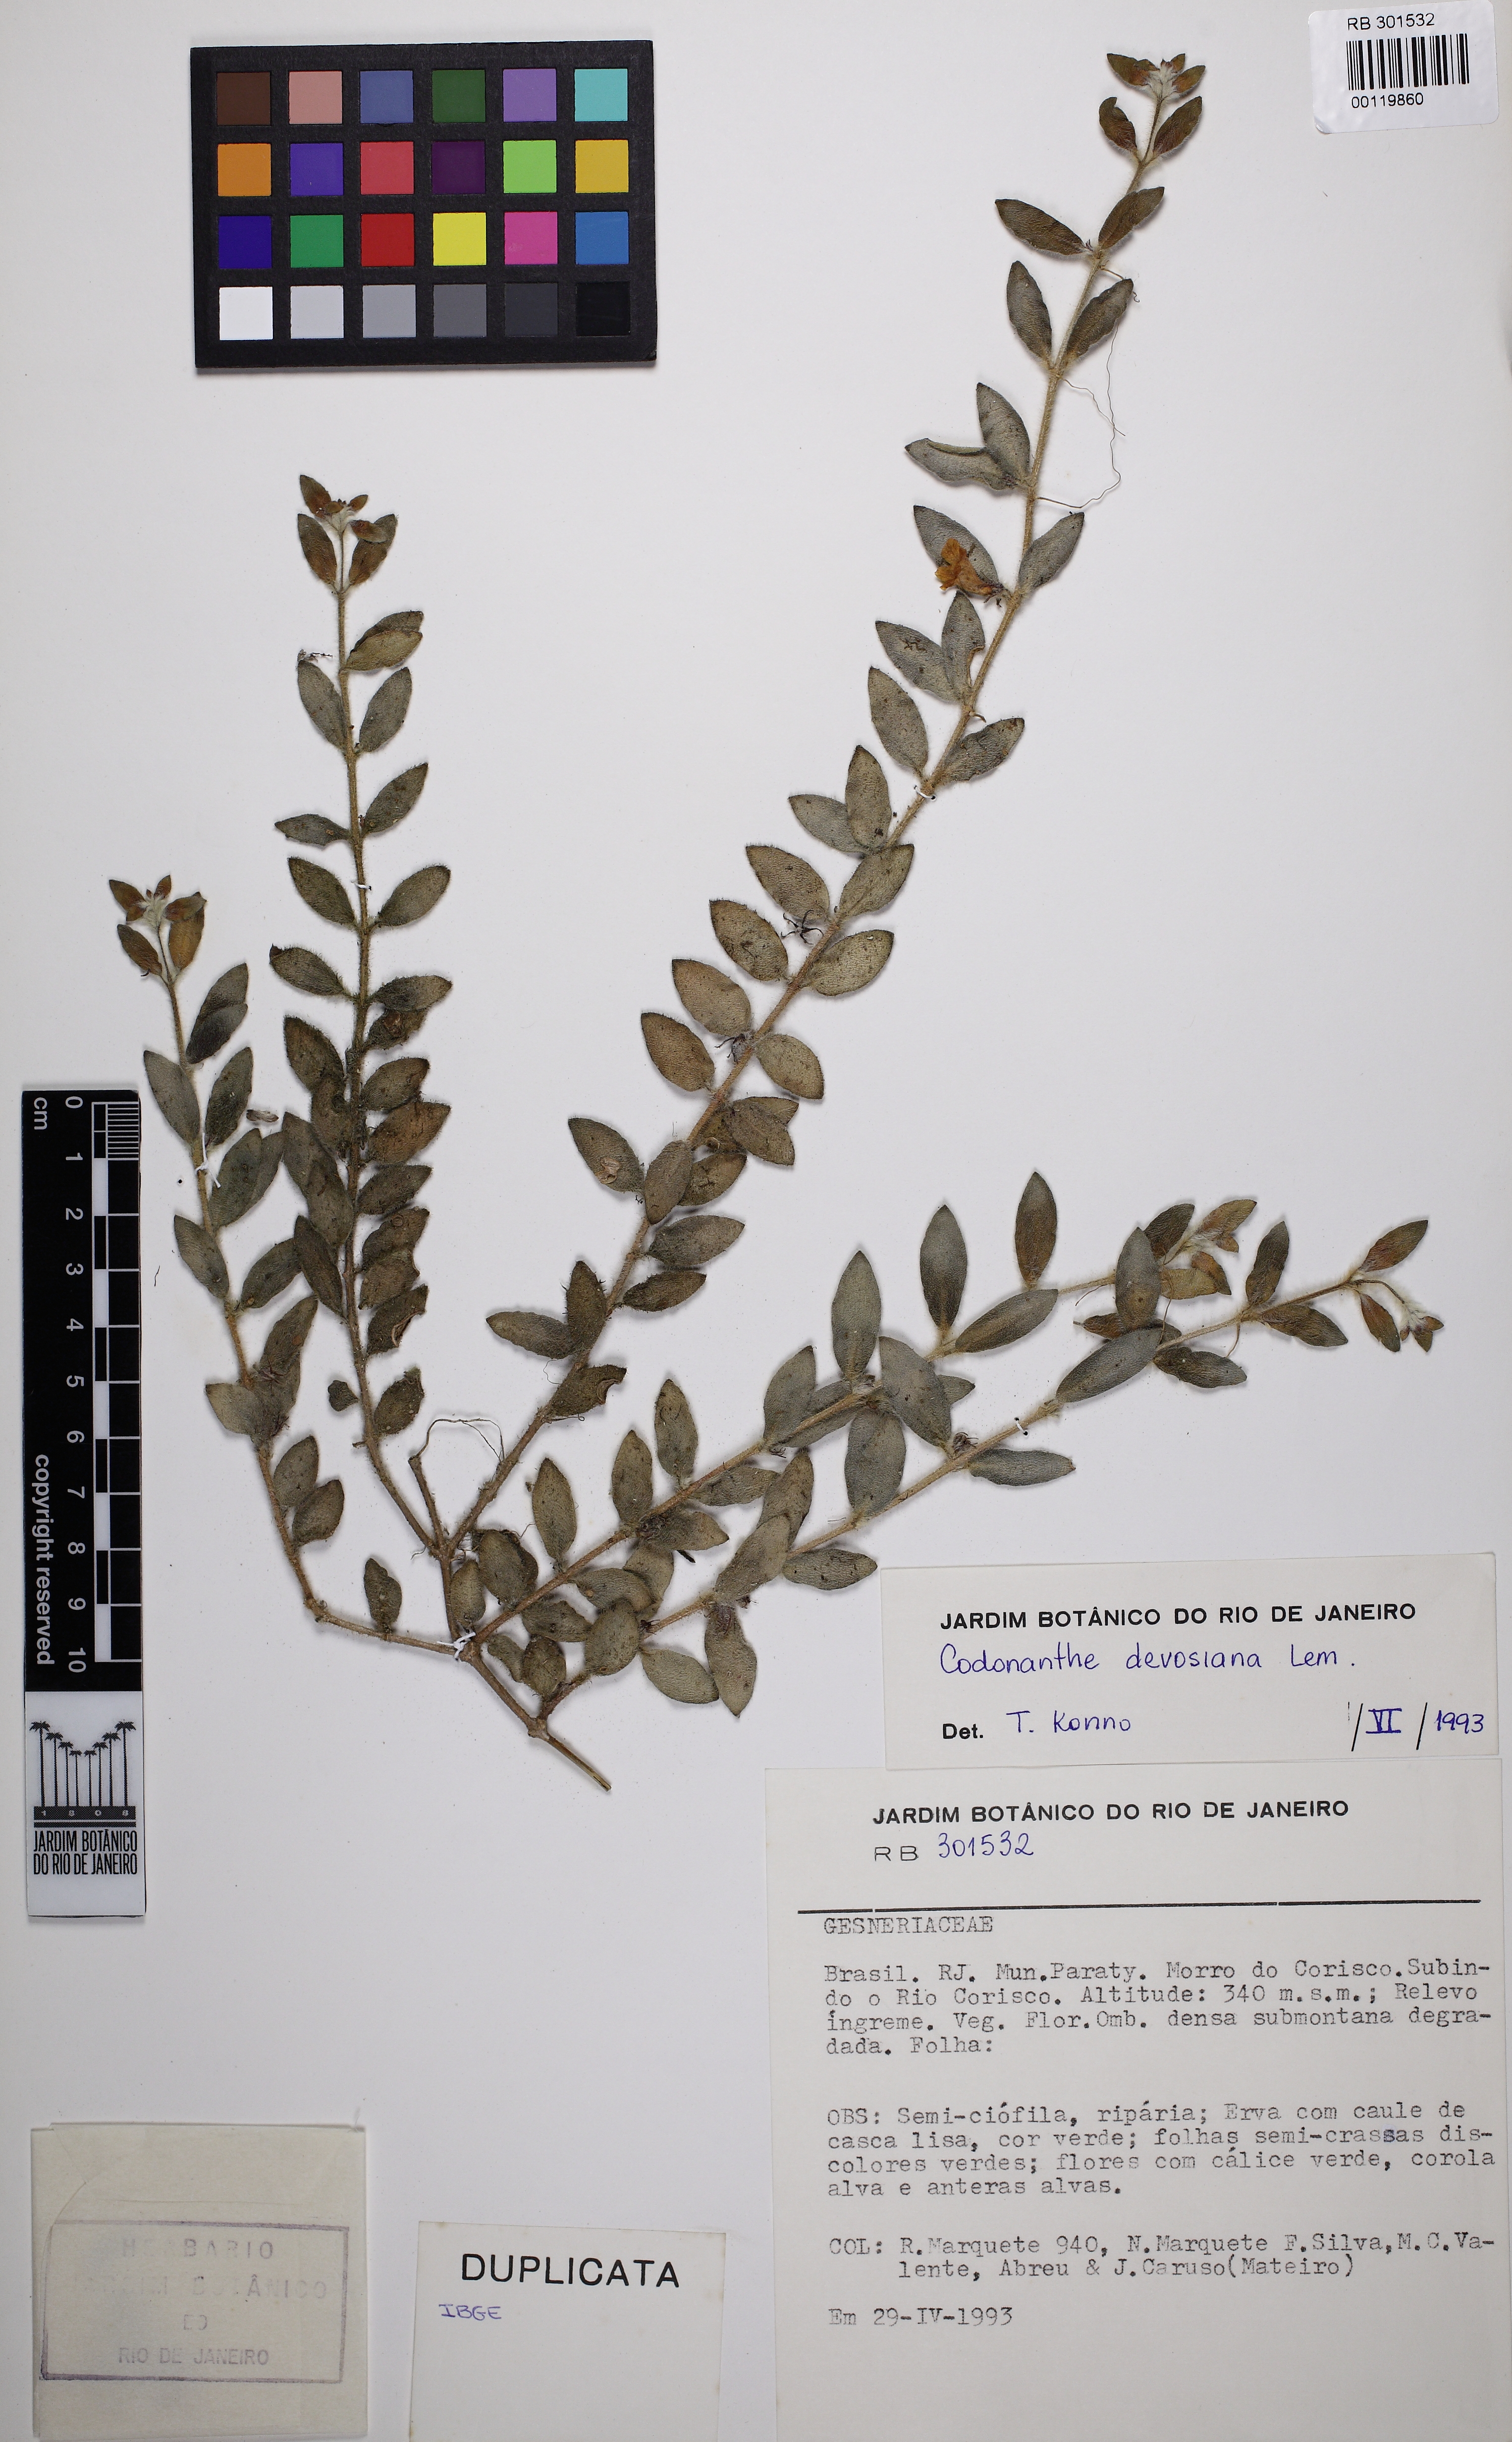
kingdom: Plantae
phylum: Tracheophyta
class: Magnoliopsida
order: Lamiales
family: Gesneriaceae
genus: Codonanthe
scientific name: Codonanthe devosiana
